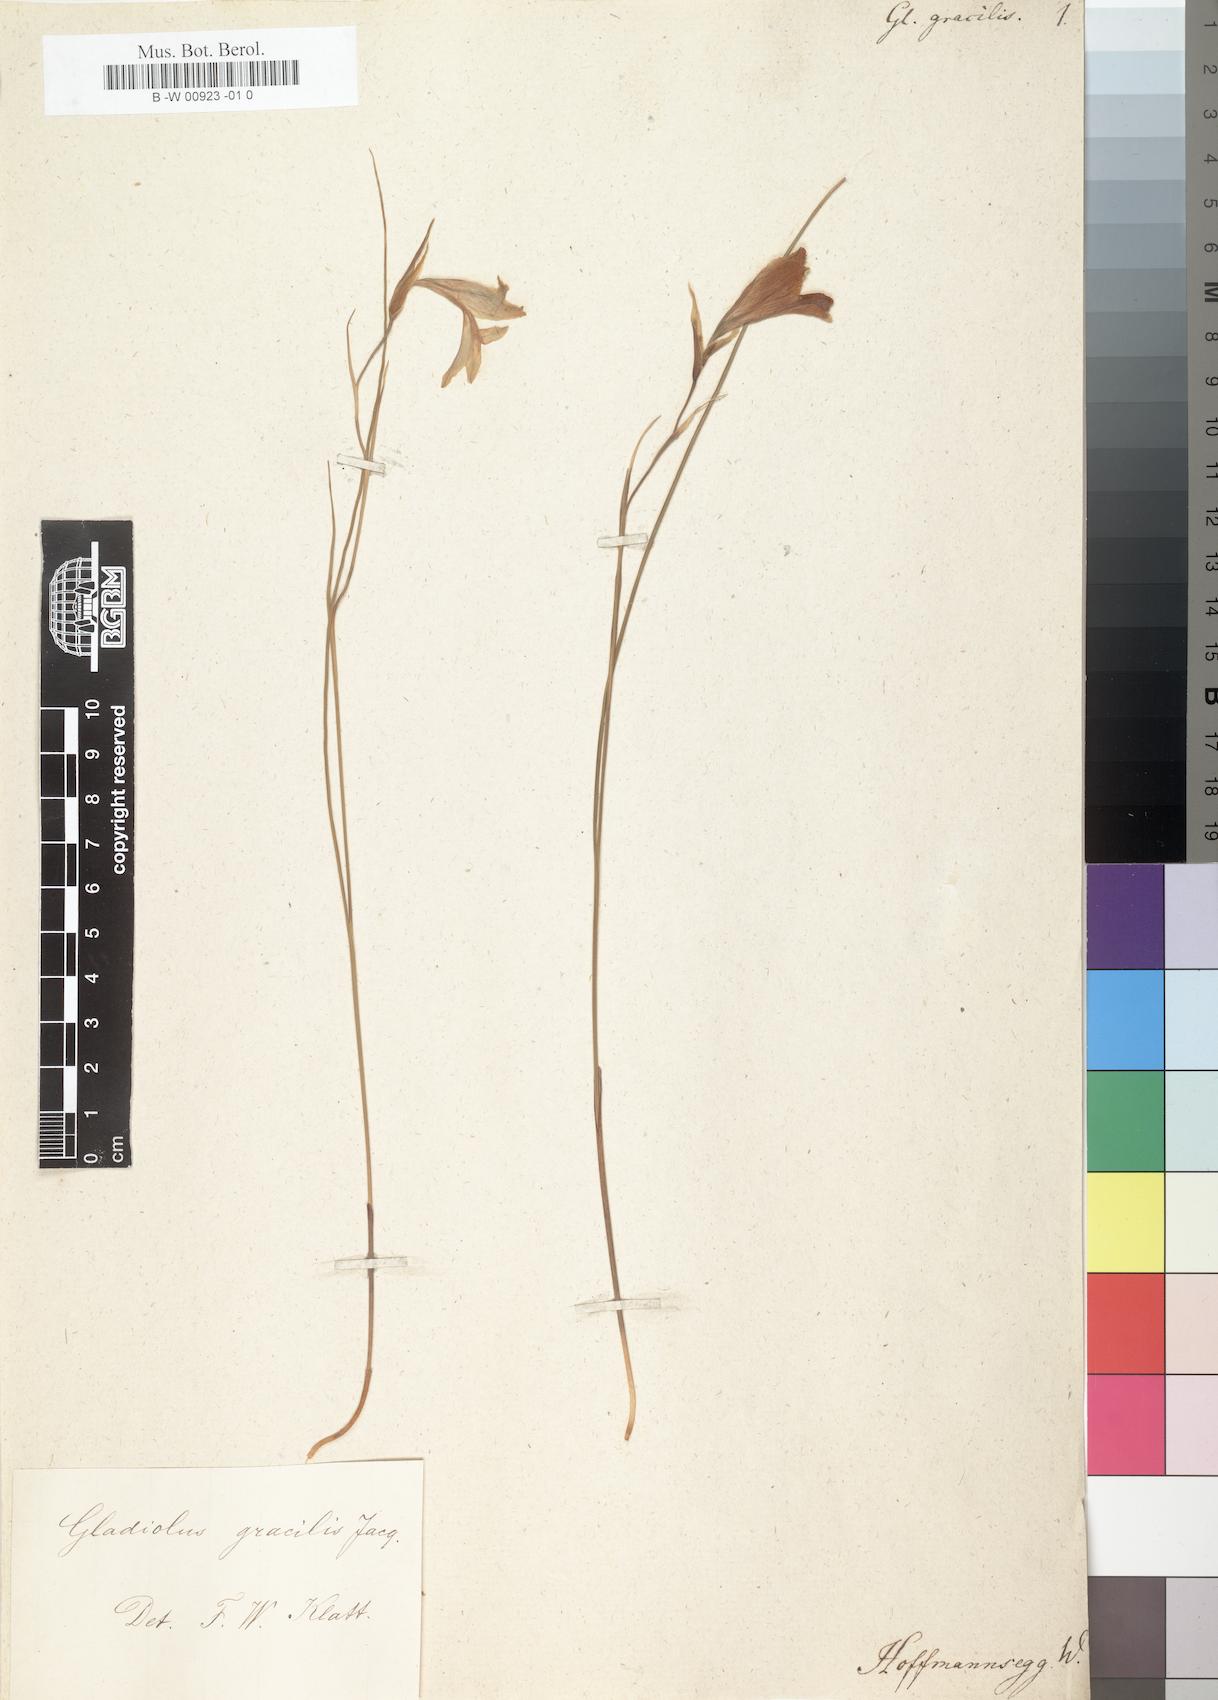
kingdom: Plantae
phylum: Tracheophyta
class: Liliopsida
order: Asparagales
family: Iridaceae
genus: Gladiolus
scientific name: Gladiolus gracilis
